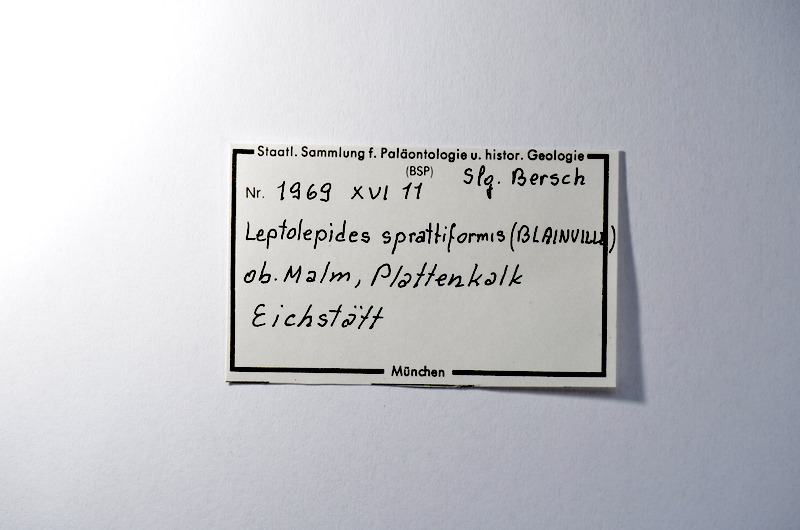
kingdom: Animalia
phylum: Chordata
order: Salmoniformes
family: Orthogonikleithridae
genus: Leptolepides
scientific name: Leptolepides sprattiformis
